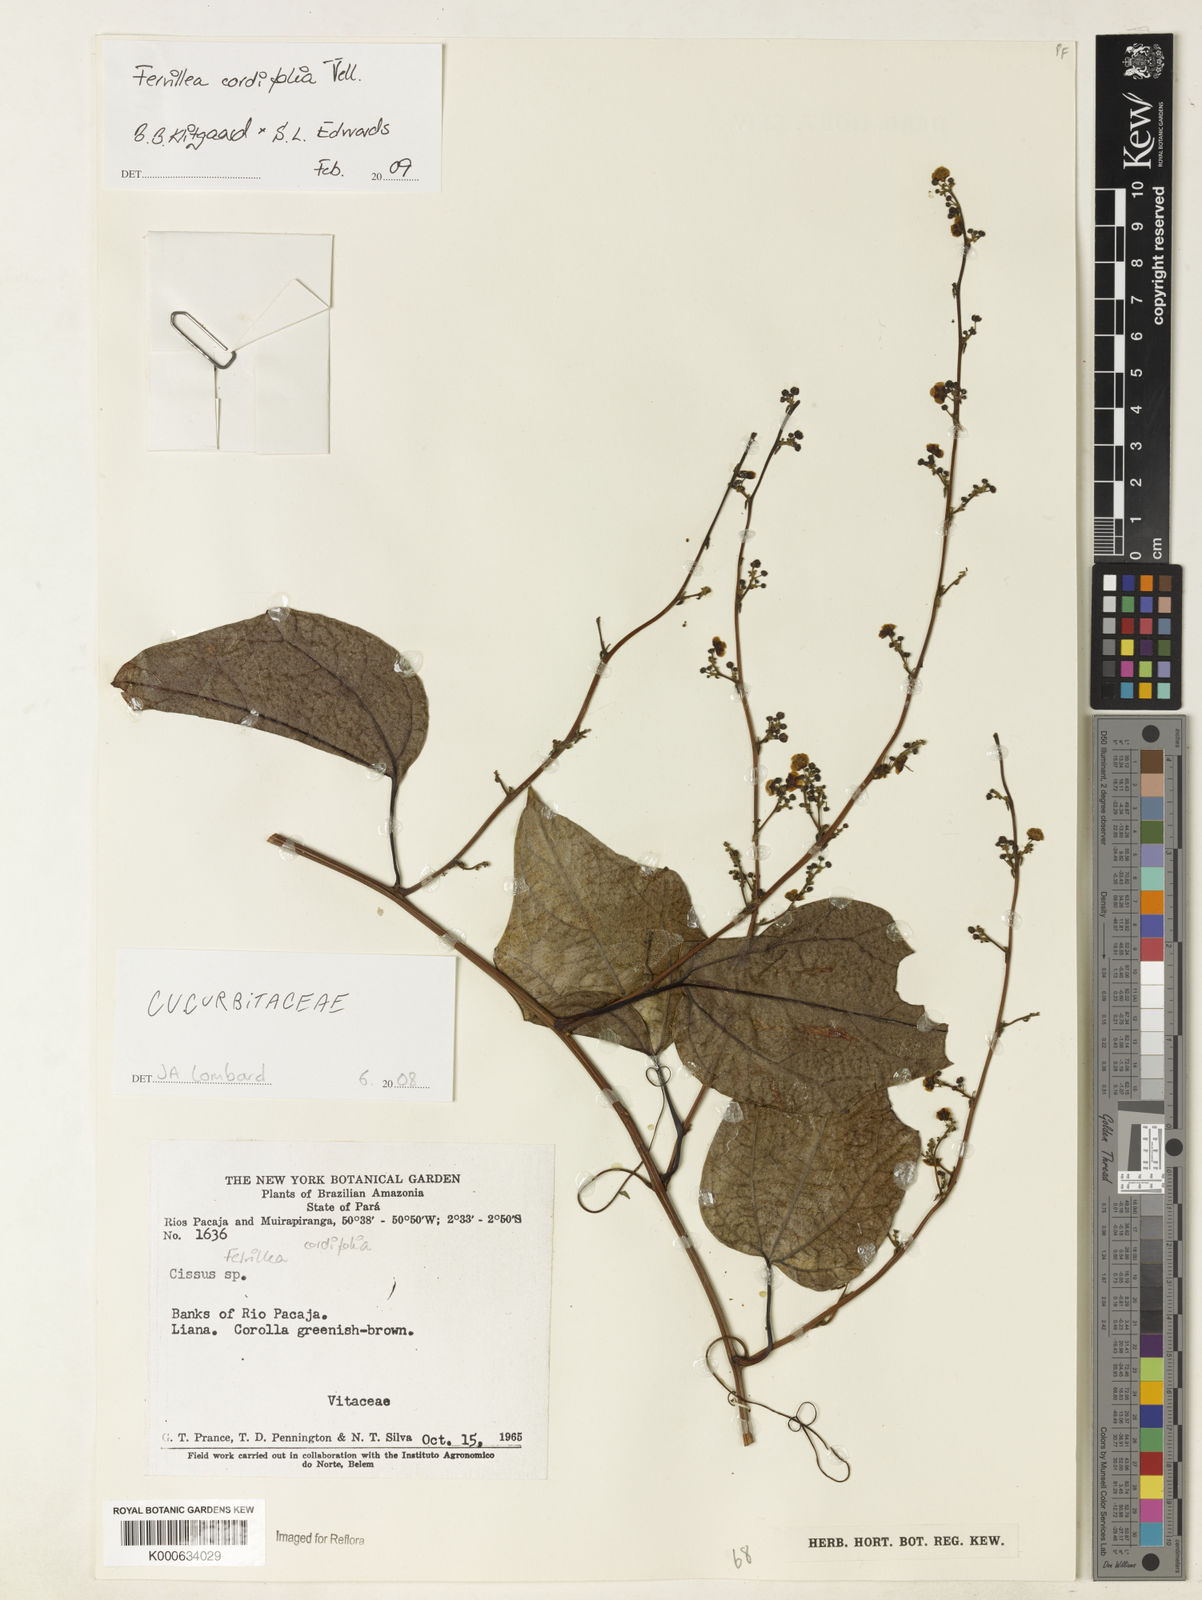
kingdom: Plantae
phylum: Tracheophyta
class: Magnoliopsida
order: Cucurbitales
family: Cucurbitaceae
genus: Fevillea
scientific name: Fevillea trilobata
